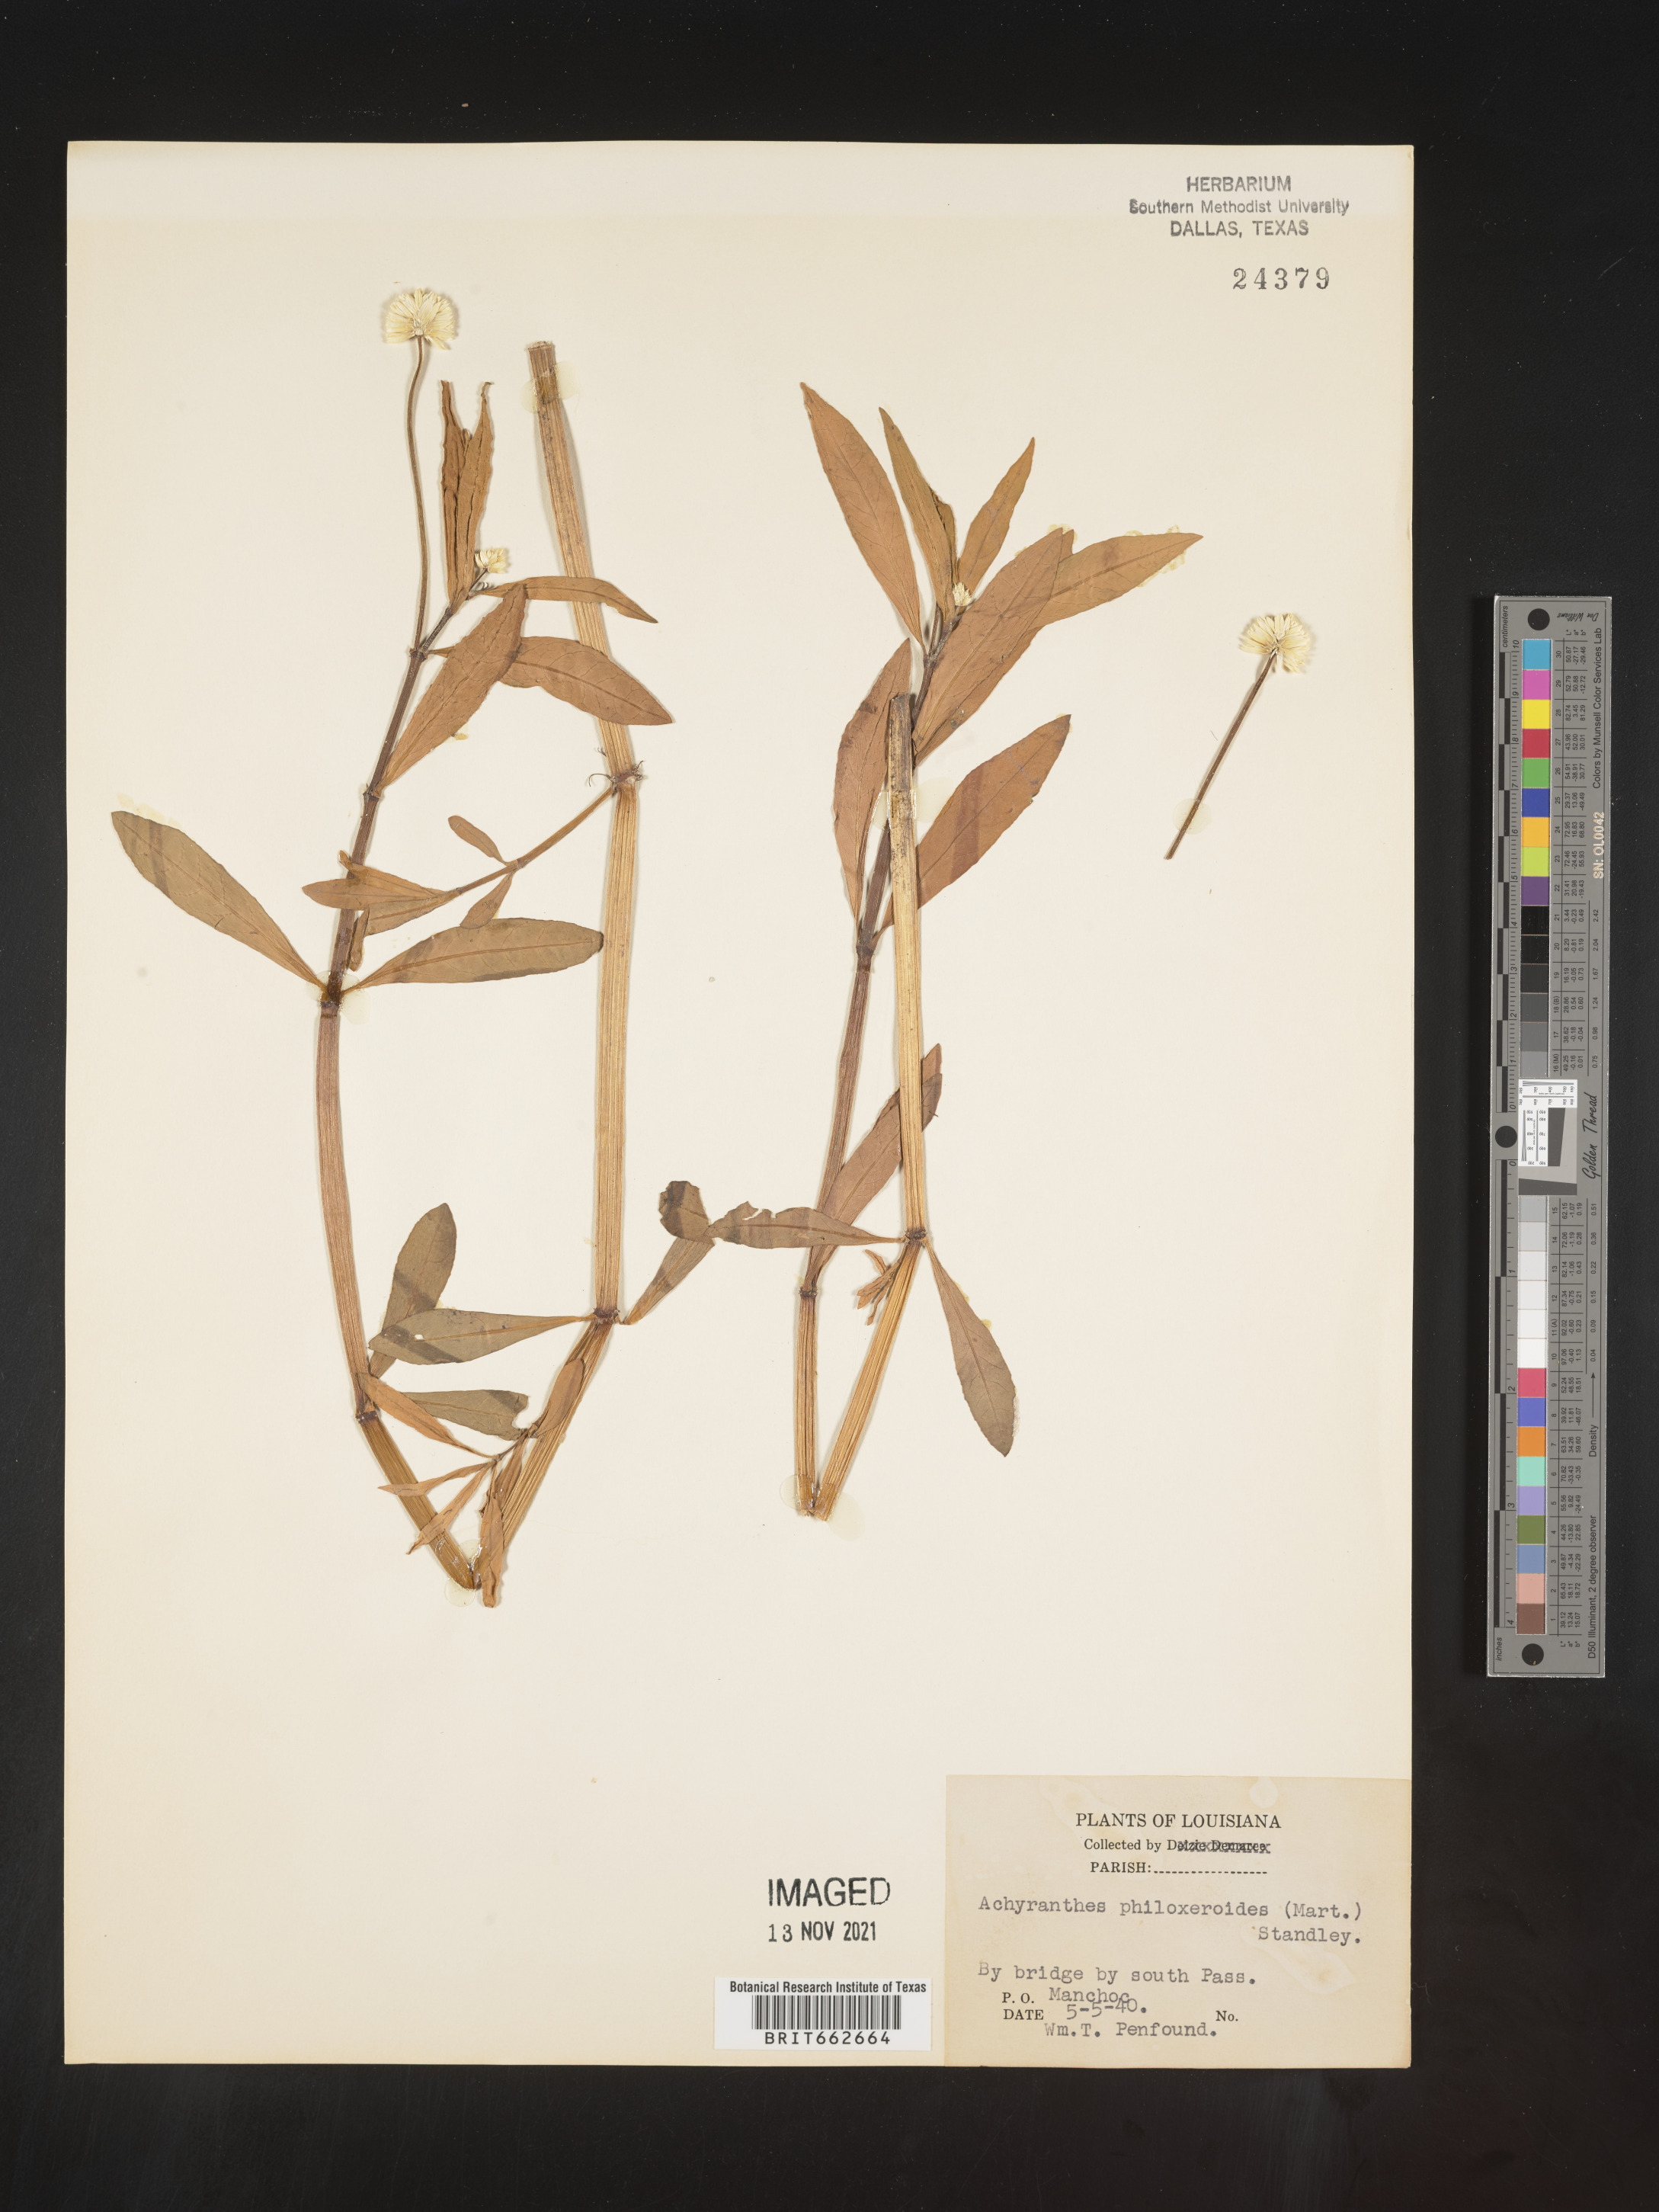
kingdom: Plantae
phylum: Tracheophyta
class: Magnoliopsida
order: Caryophyllales
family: Amaranthaceae
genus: Alternanthera
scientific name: Alternanthera philoxeroides
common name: Alligatorweed
